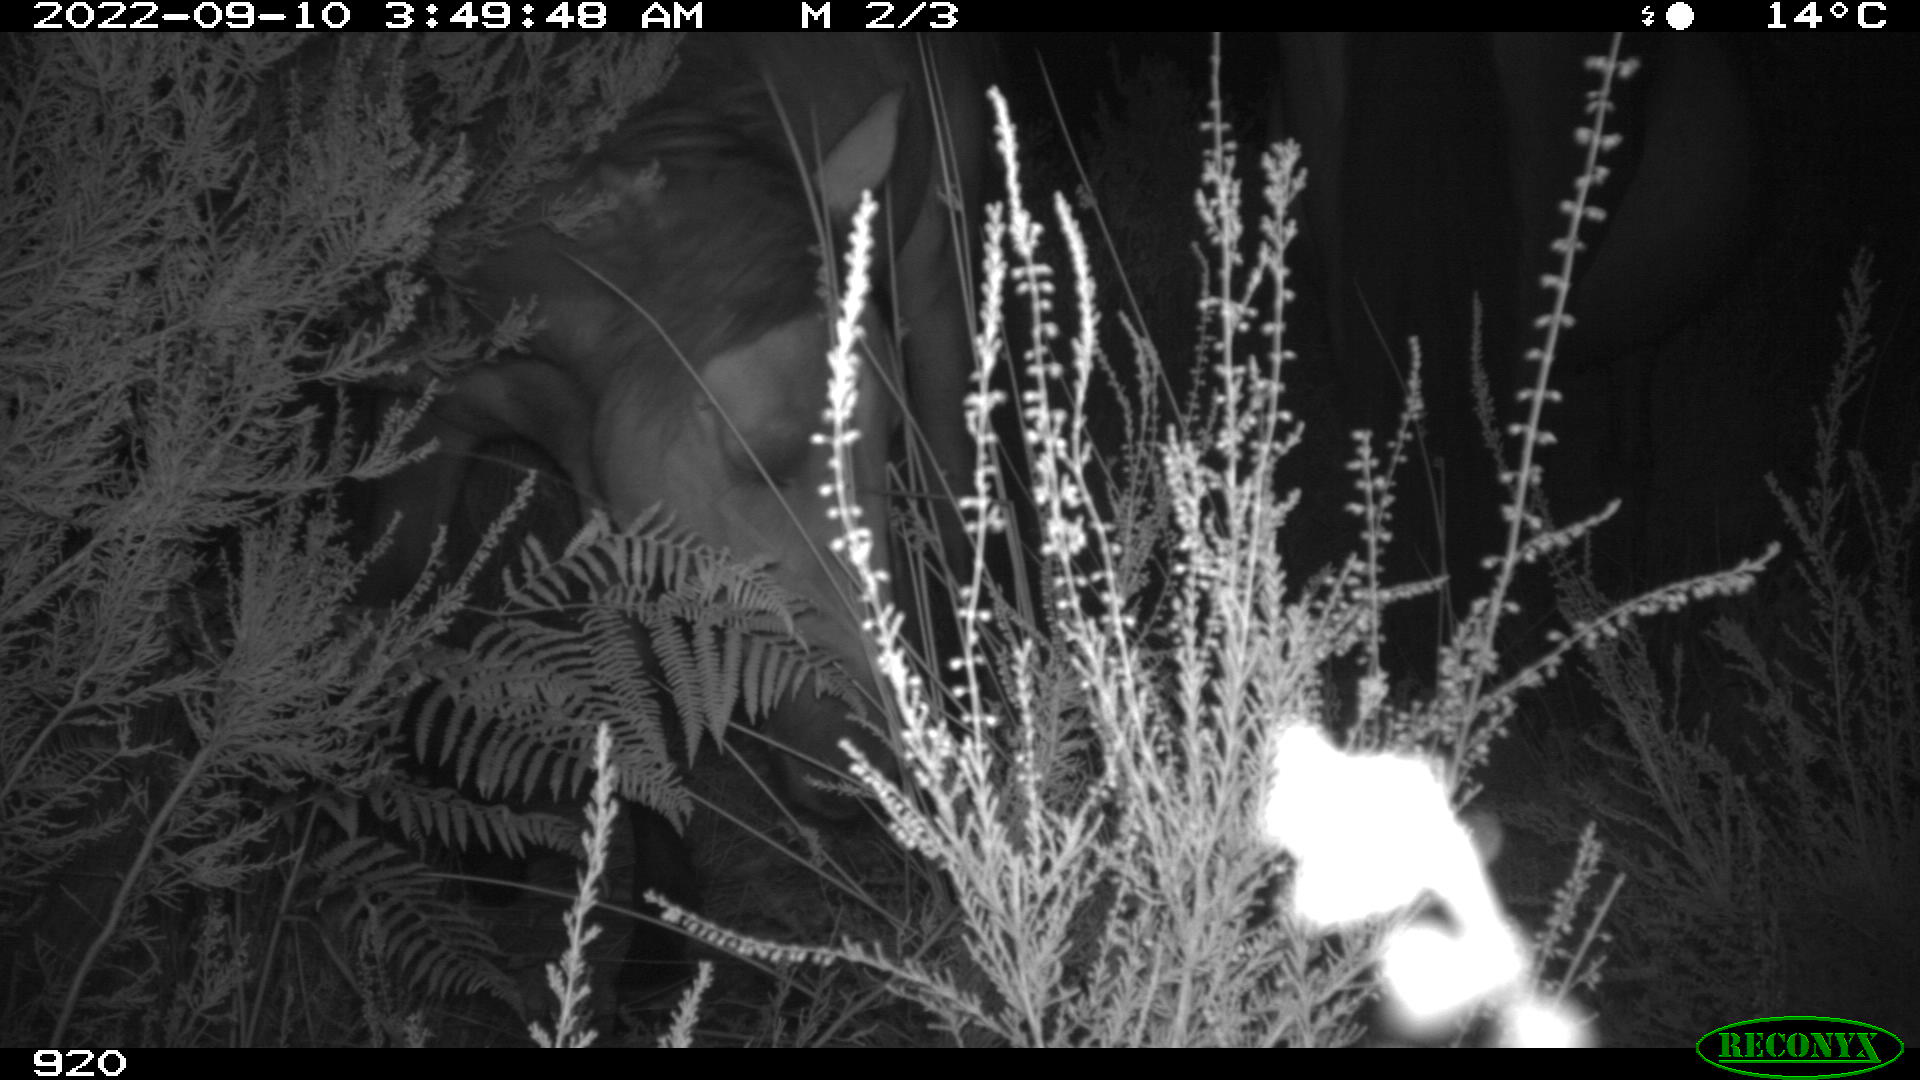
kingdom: Animalia
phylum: Chordata
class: Mammalia
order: Perissodactyla
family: Equidae
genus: Equus
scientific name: Equus caballus
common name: Horse
